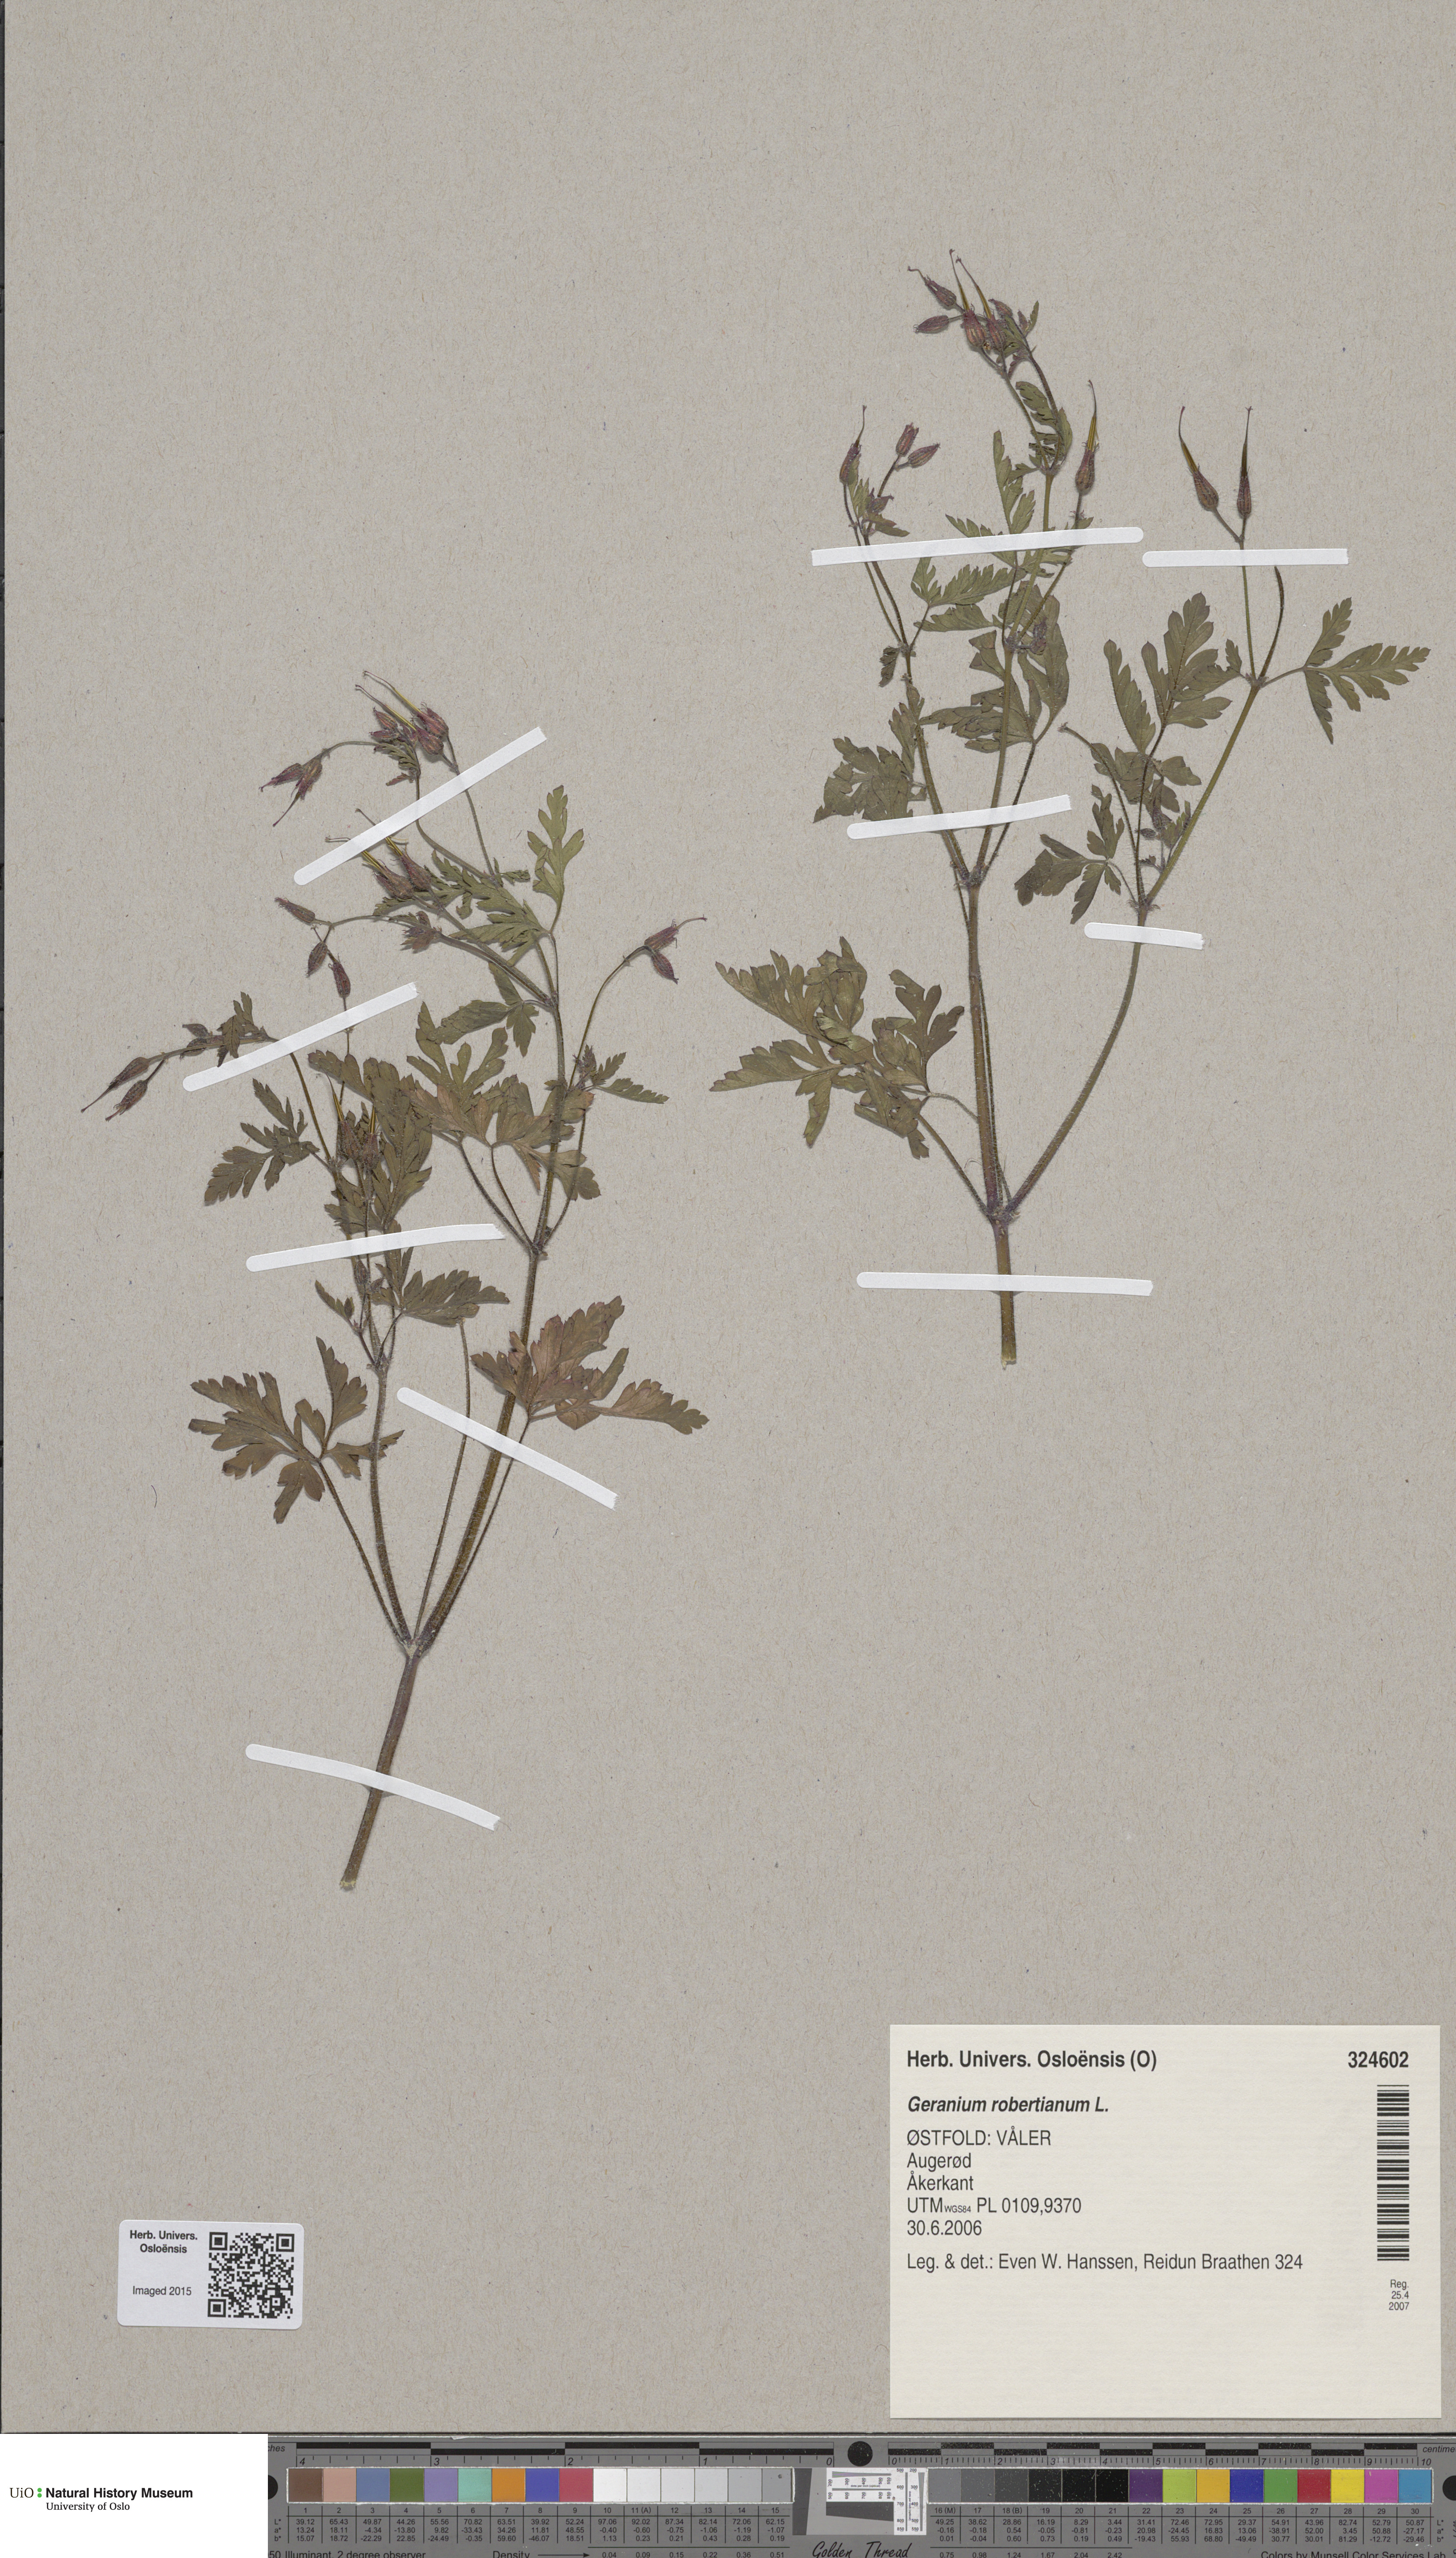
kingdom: Plantae
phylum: Tracheophyta
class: Magnoliopsida
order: Geraniales
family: Geraniaceae
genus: Geranium
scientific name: Geranium robertianum
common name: Herb-robert
